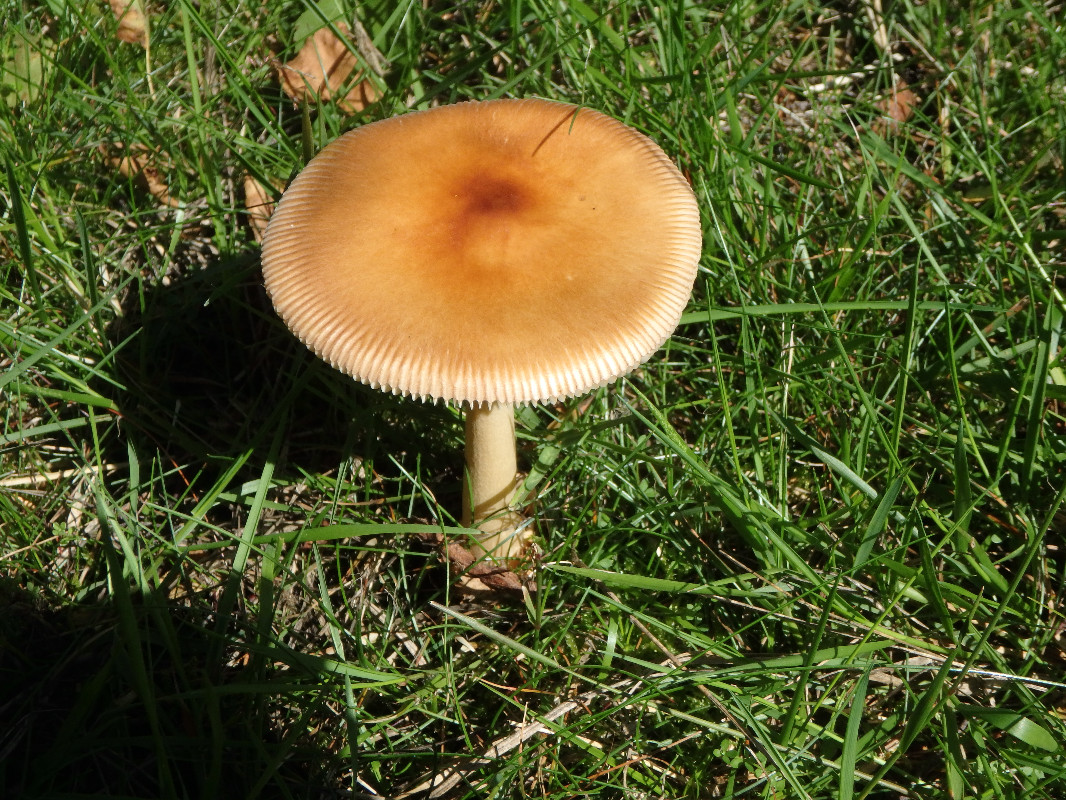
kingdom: Fungi
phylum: Basidiomycota
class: Agaricomycetes
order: Agaricales
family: Amanitaceae
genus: Amanita
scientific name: Amanita fulva
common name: brun kam-fluesvamp
